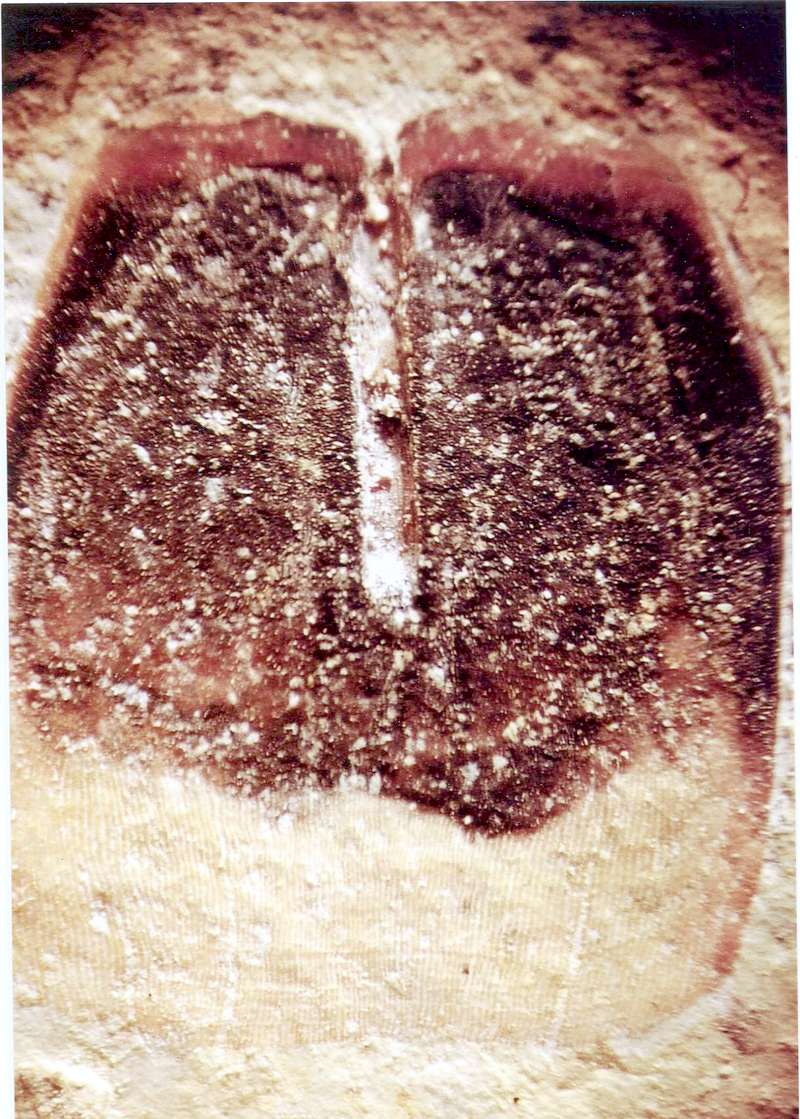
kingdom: Animalia
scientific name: Animalia
